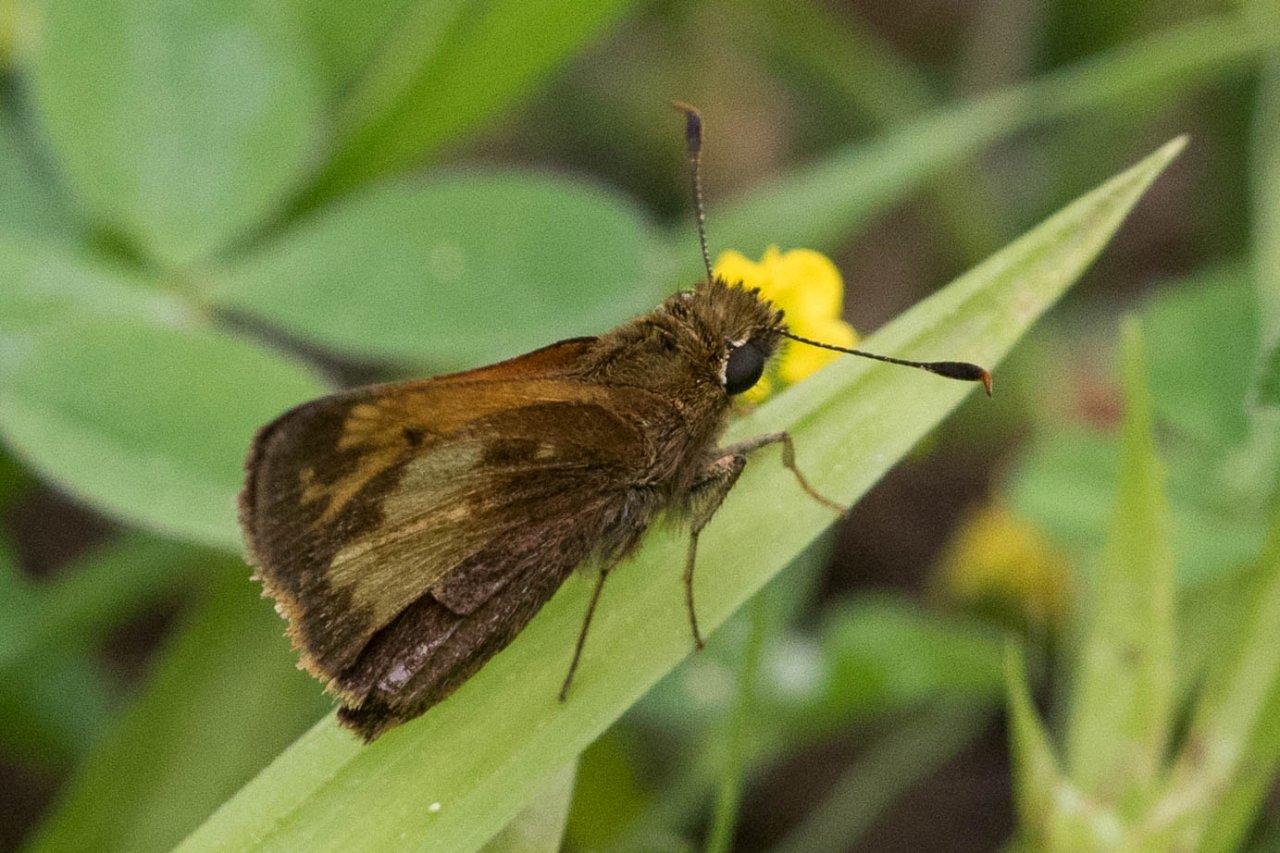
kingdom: Animalia
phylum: Arthropoda
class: Insecta
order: Lepidoptera
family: Hesperiidae
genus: Lon
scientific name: Lon hobomok
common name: Hobomok Skipper
